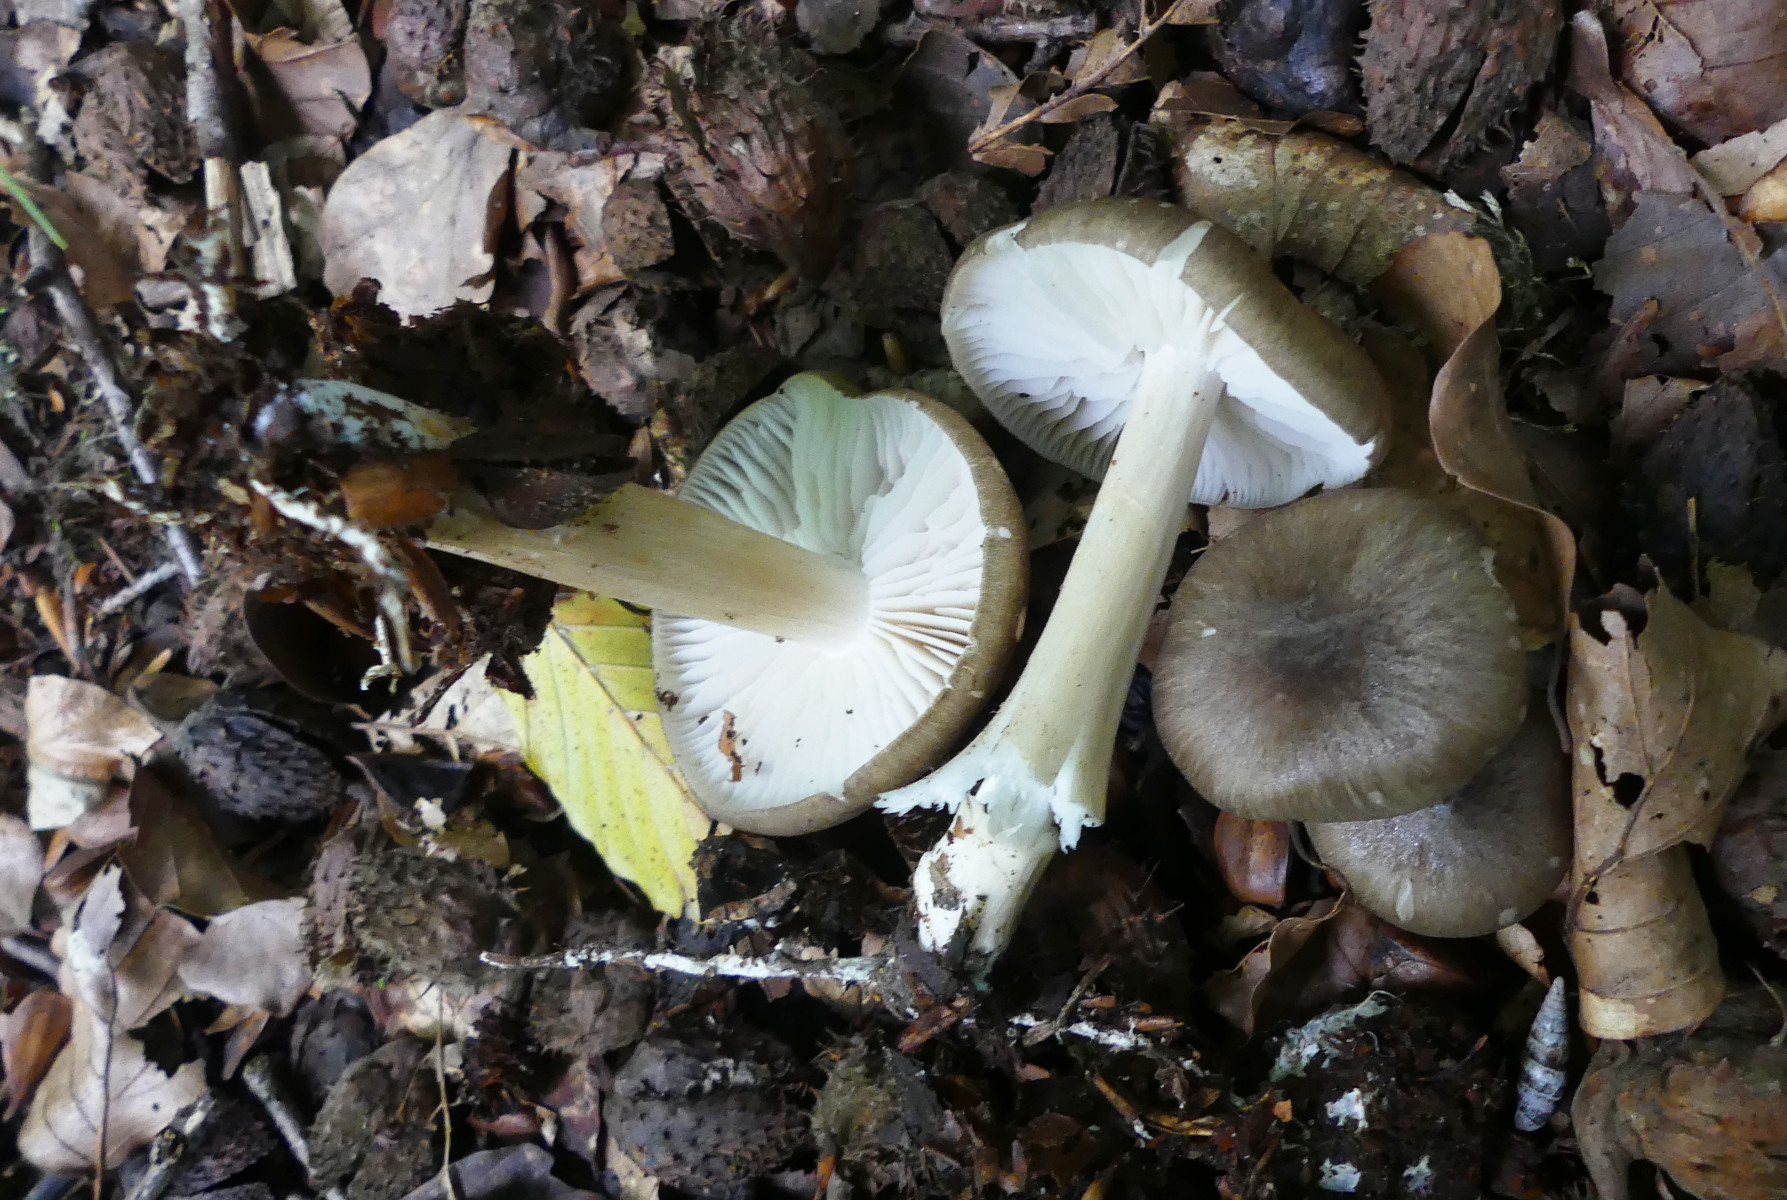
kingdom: Fungi
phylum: Basidiomycota
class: Agaricomycetes
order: Agaricales
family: Tricholomataceae
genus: Megacollybia
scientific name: Megacollybia platyphylla
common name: bredbladet væbnerhat
